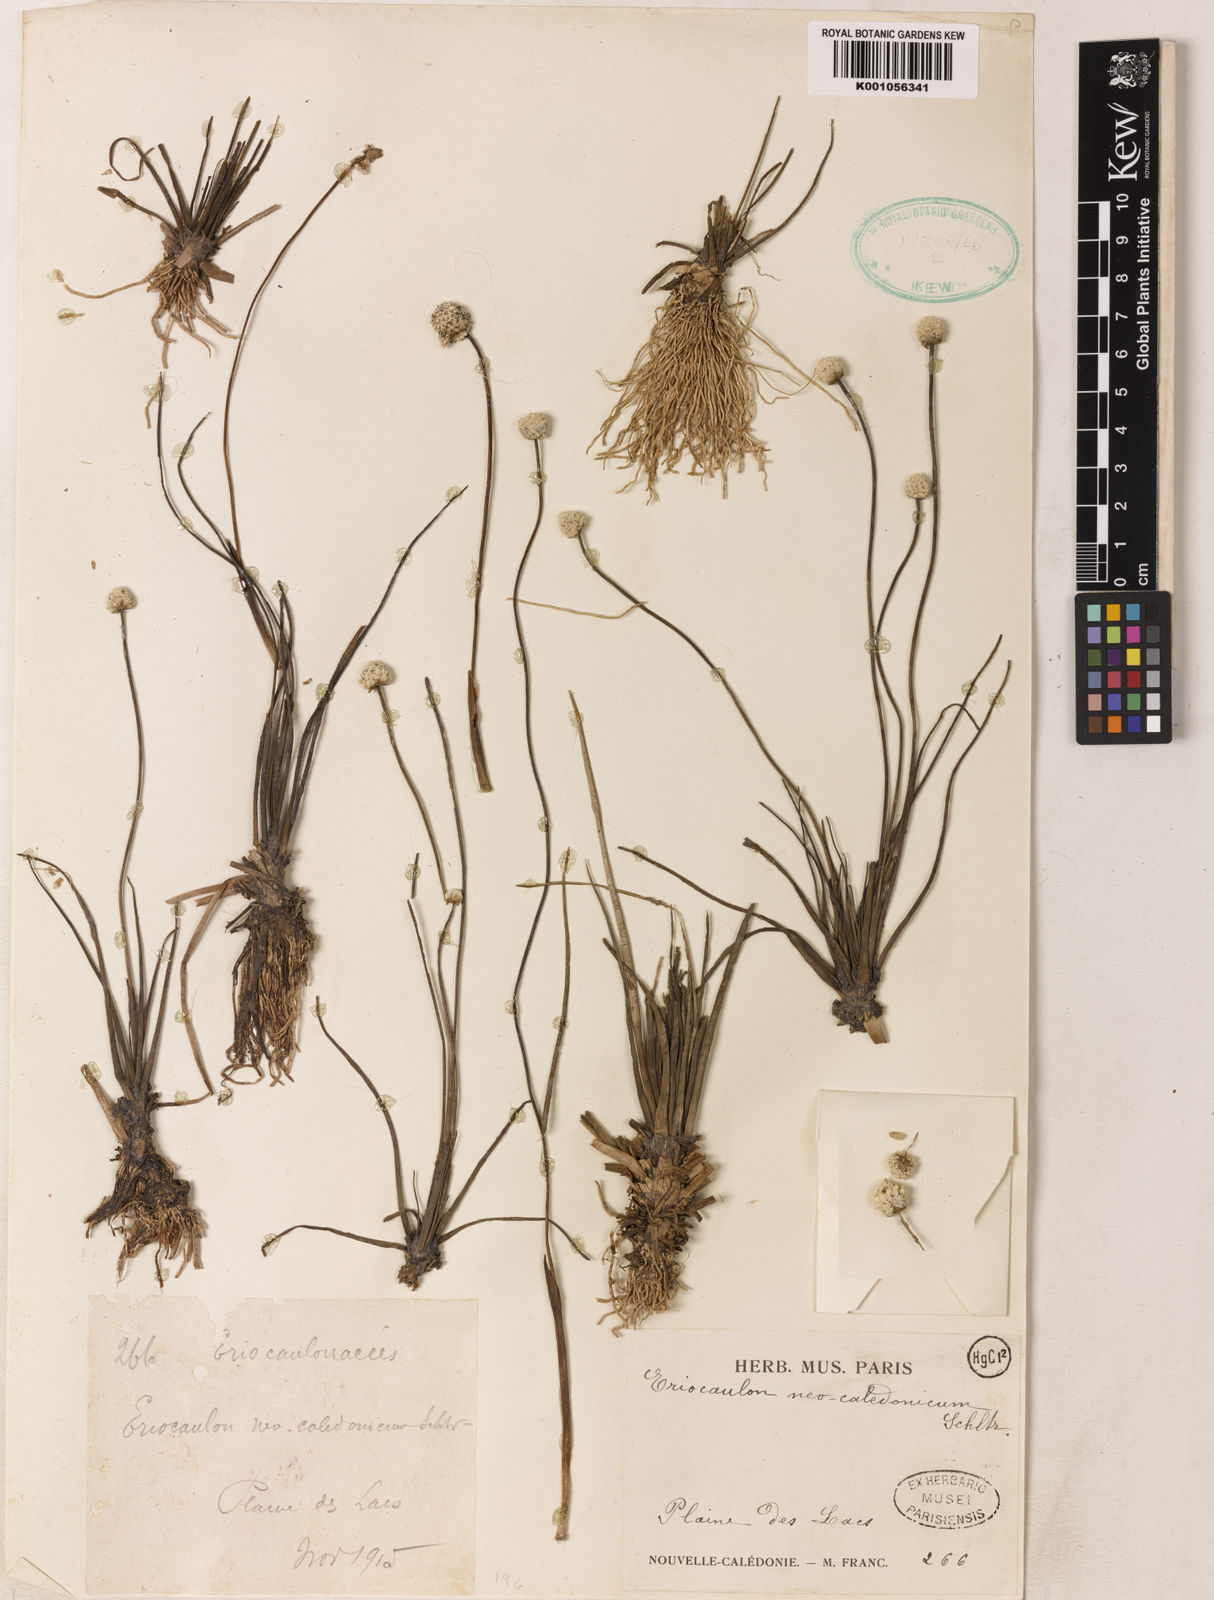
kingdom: Plantae
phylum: Tracheophyta
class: Liliopsida
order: Poales
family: Eriocaulaceae
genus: Eriocaulon
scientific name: Eriocaulon neocaledonicum
